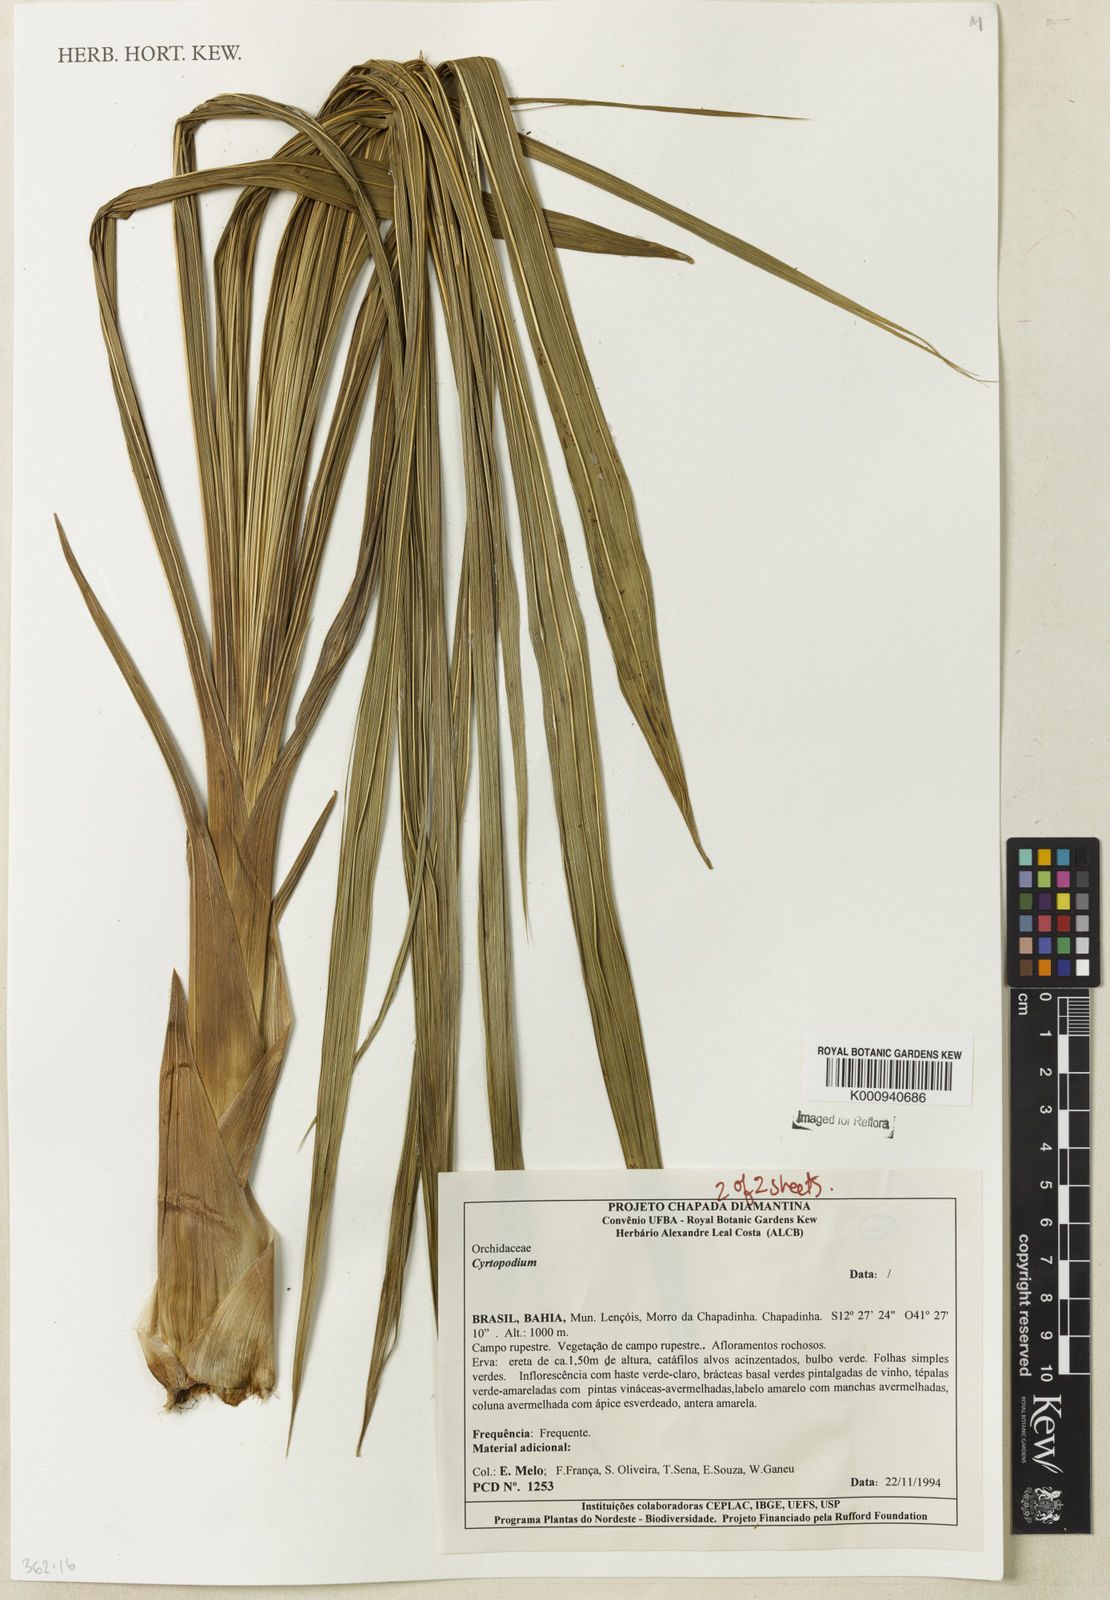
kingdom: Plantae
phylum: Tracheophyta
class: Liliopsida
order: Asparagales
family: Orchidaceae
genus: Cyrtopodium
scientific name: Cyrtopodium
